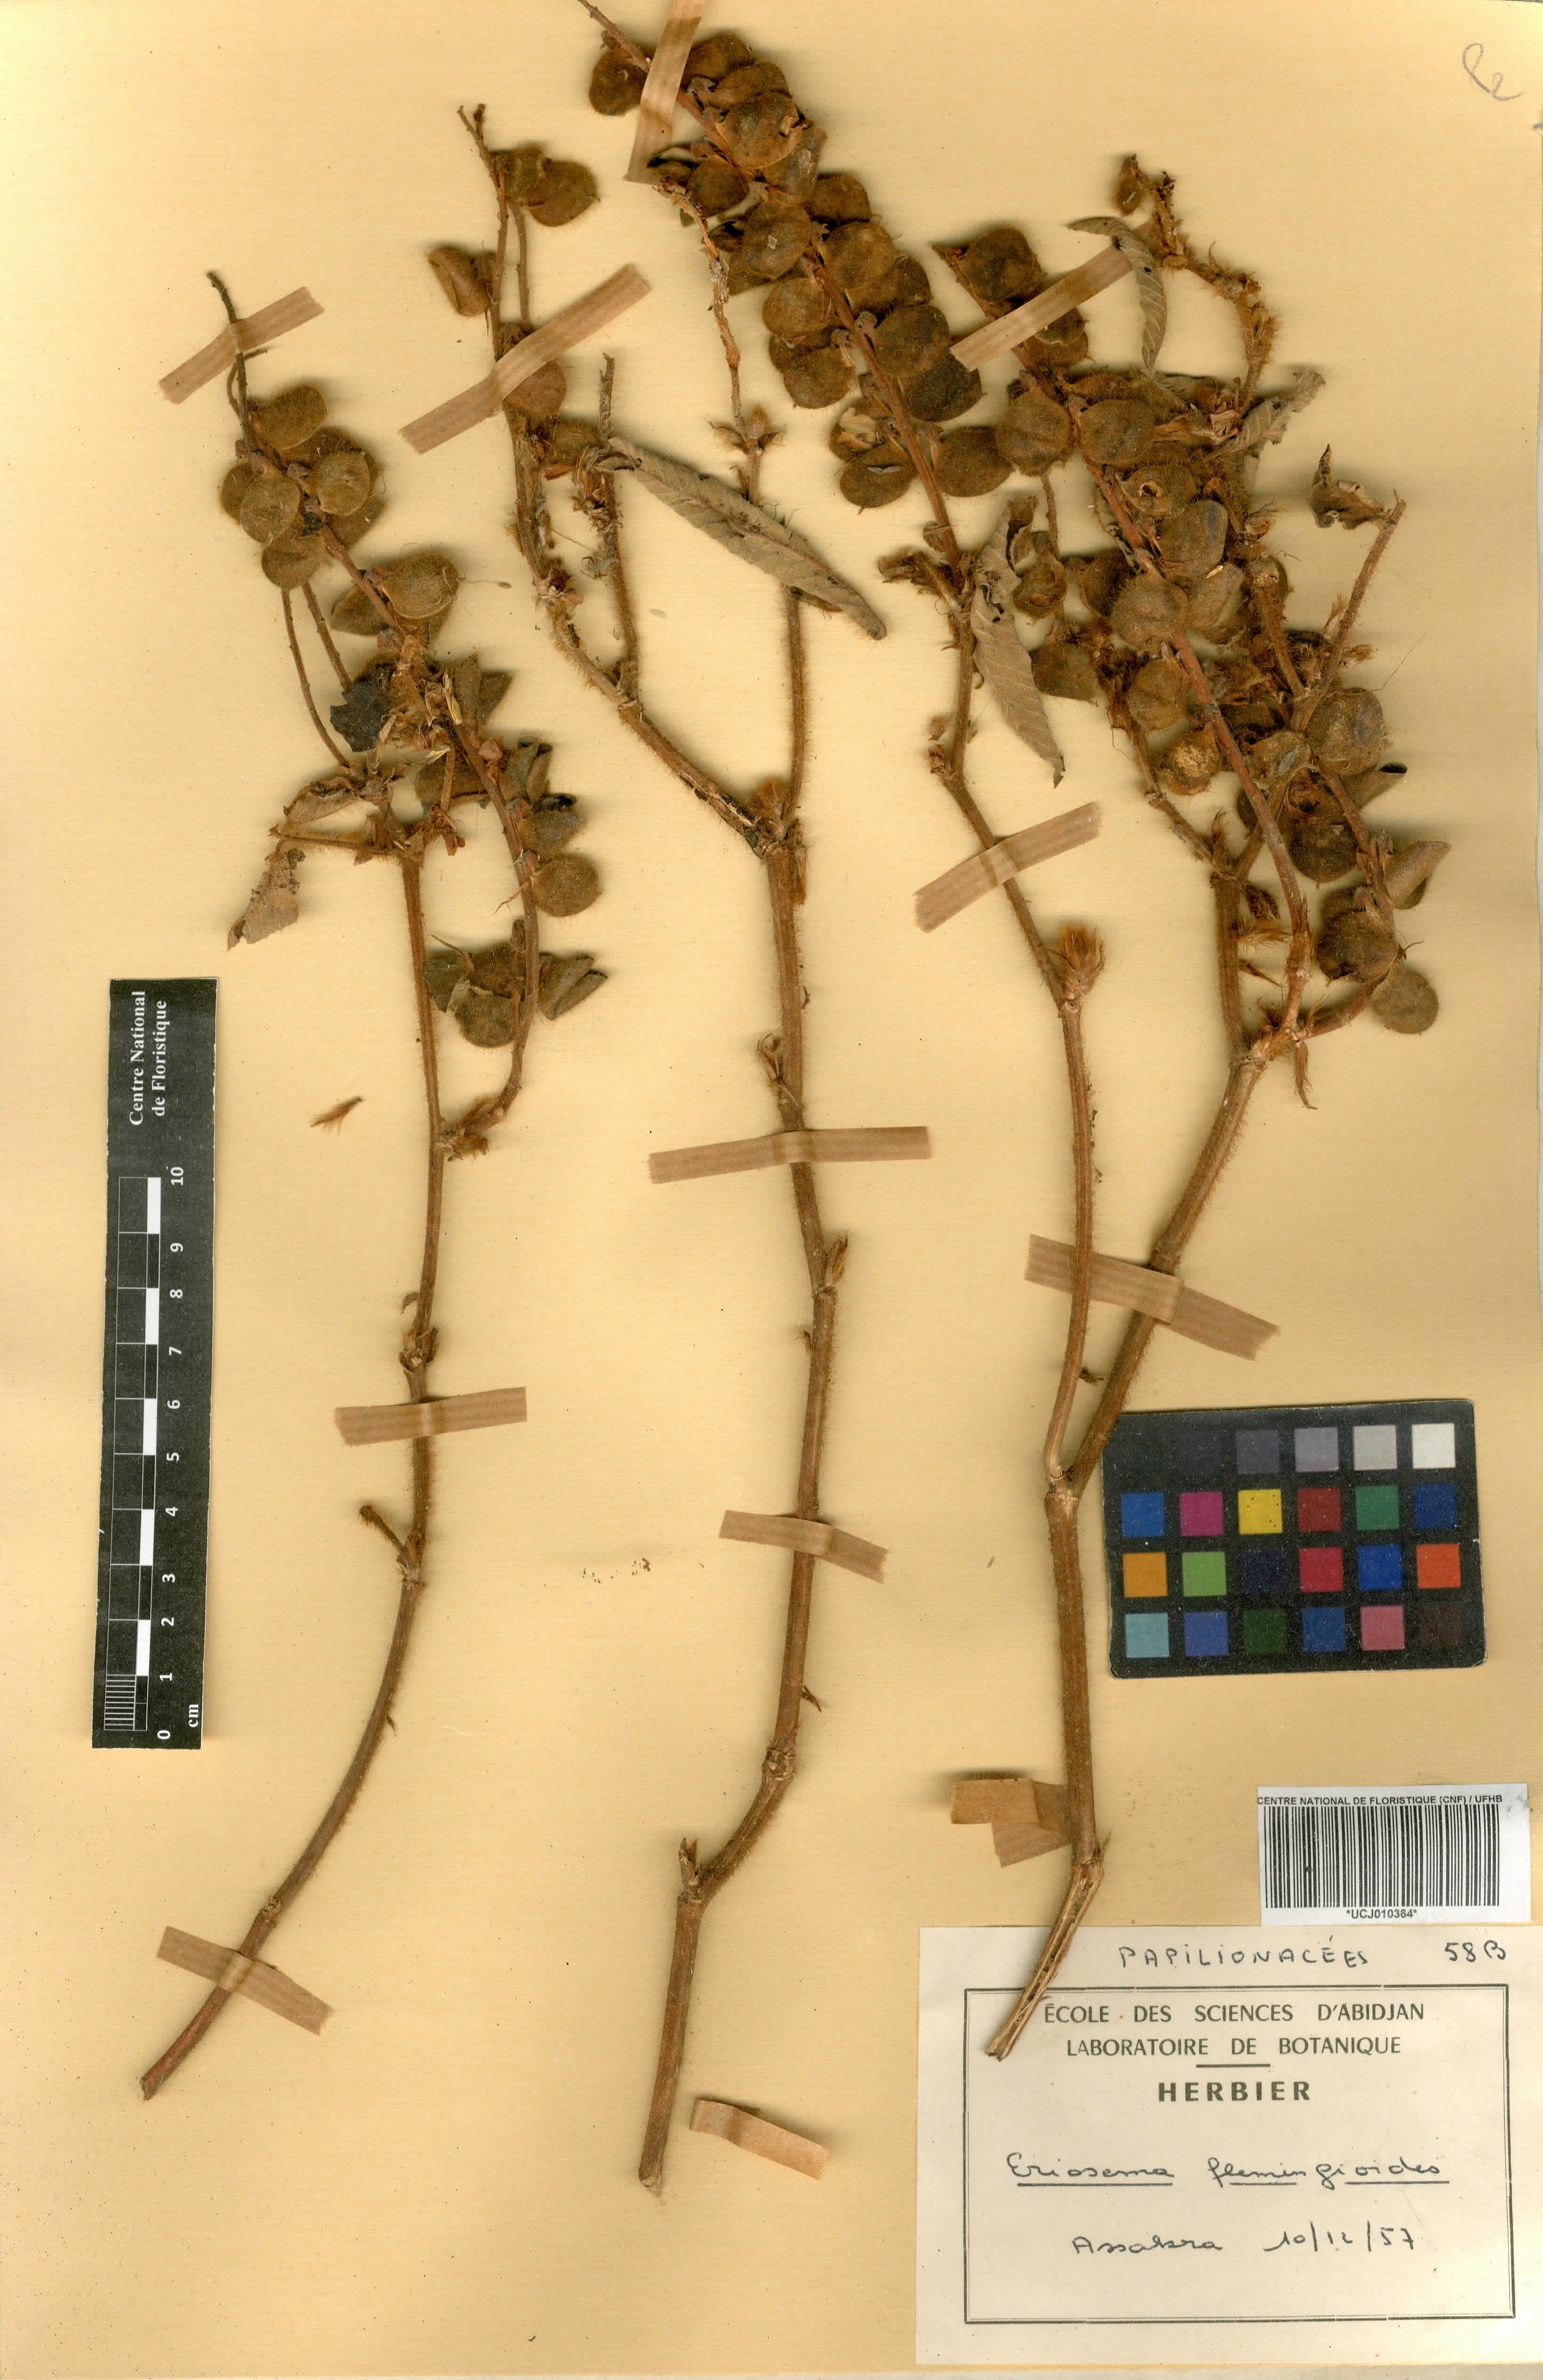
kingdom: Plantae
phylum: Tracheophyta
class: Magnoliopsida
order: Fabales
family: Fabaceae
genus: Eriosema
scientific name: Eriosema flemingioides
